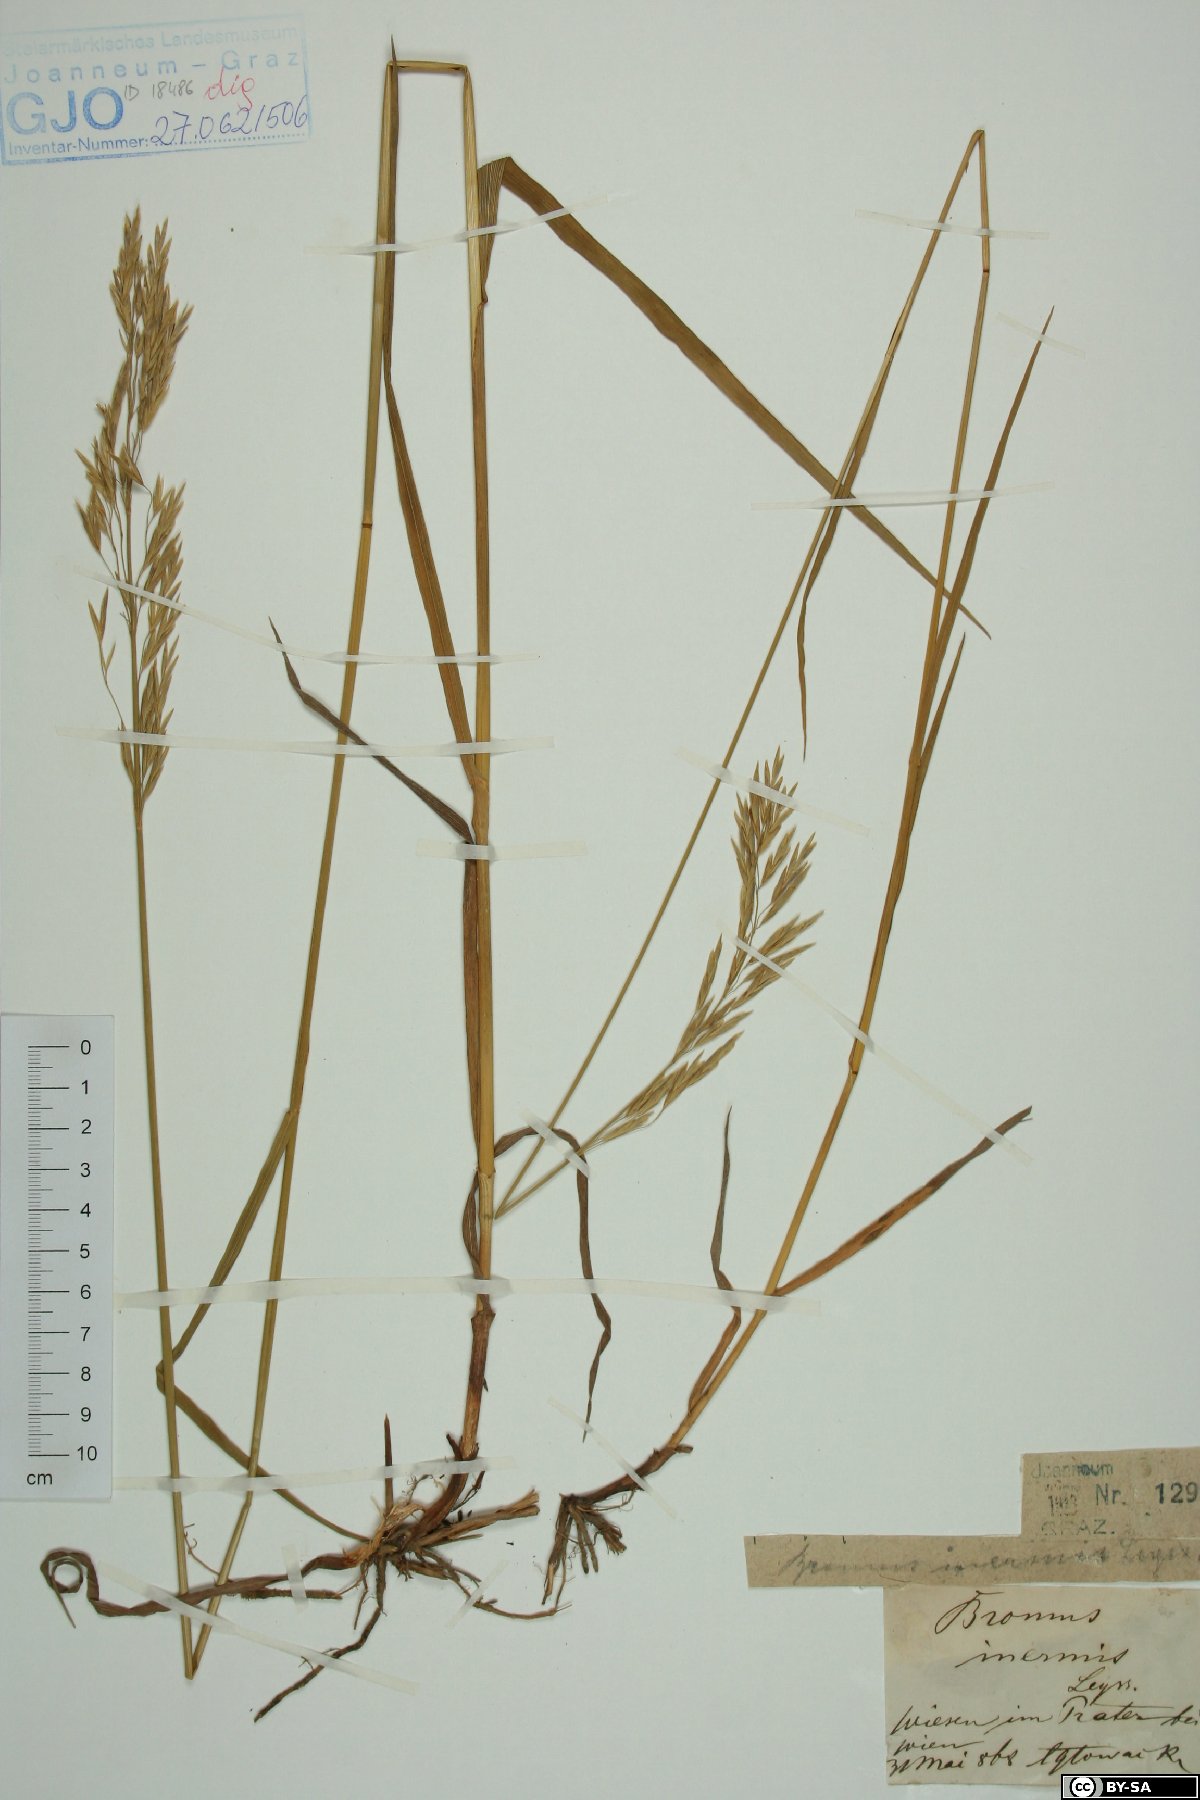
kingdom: Plantae
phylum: Tracheophyta
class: Liliopsida
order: Poales
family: Poaceae
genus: Bromus
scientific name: Bromus inermis
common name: Smooth brome
